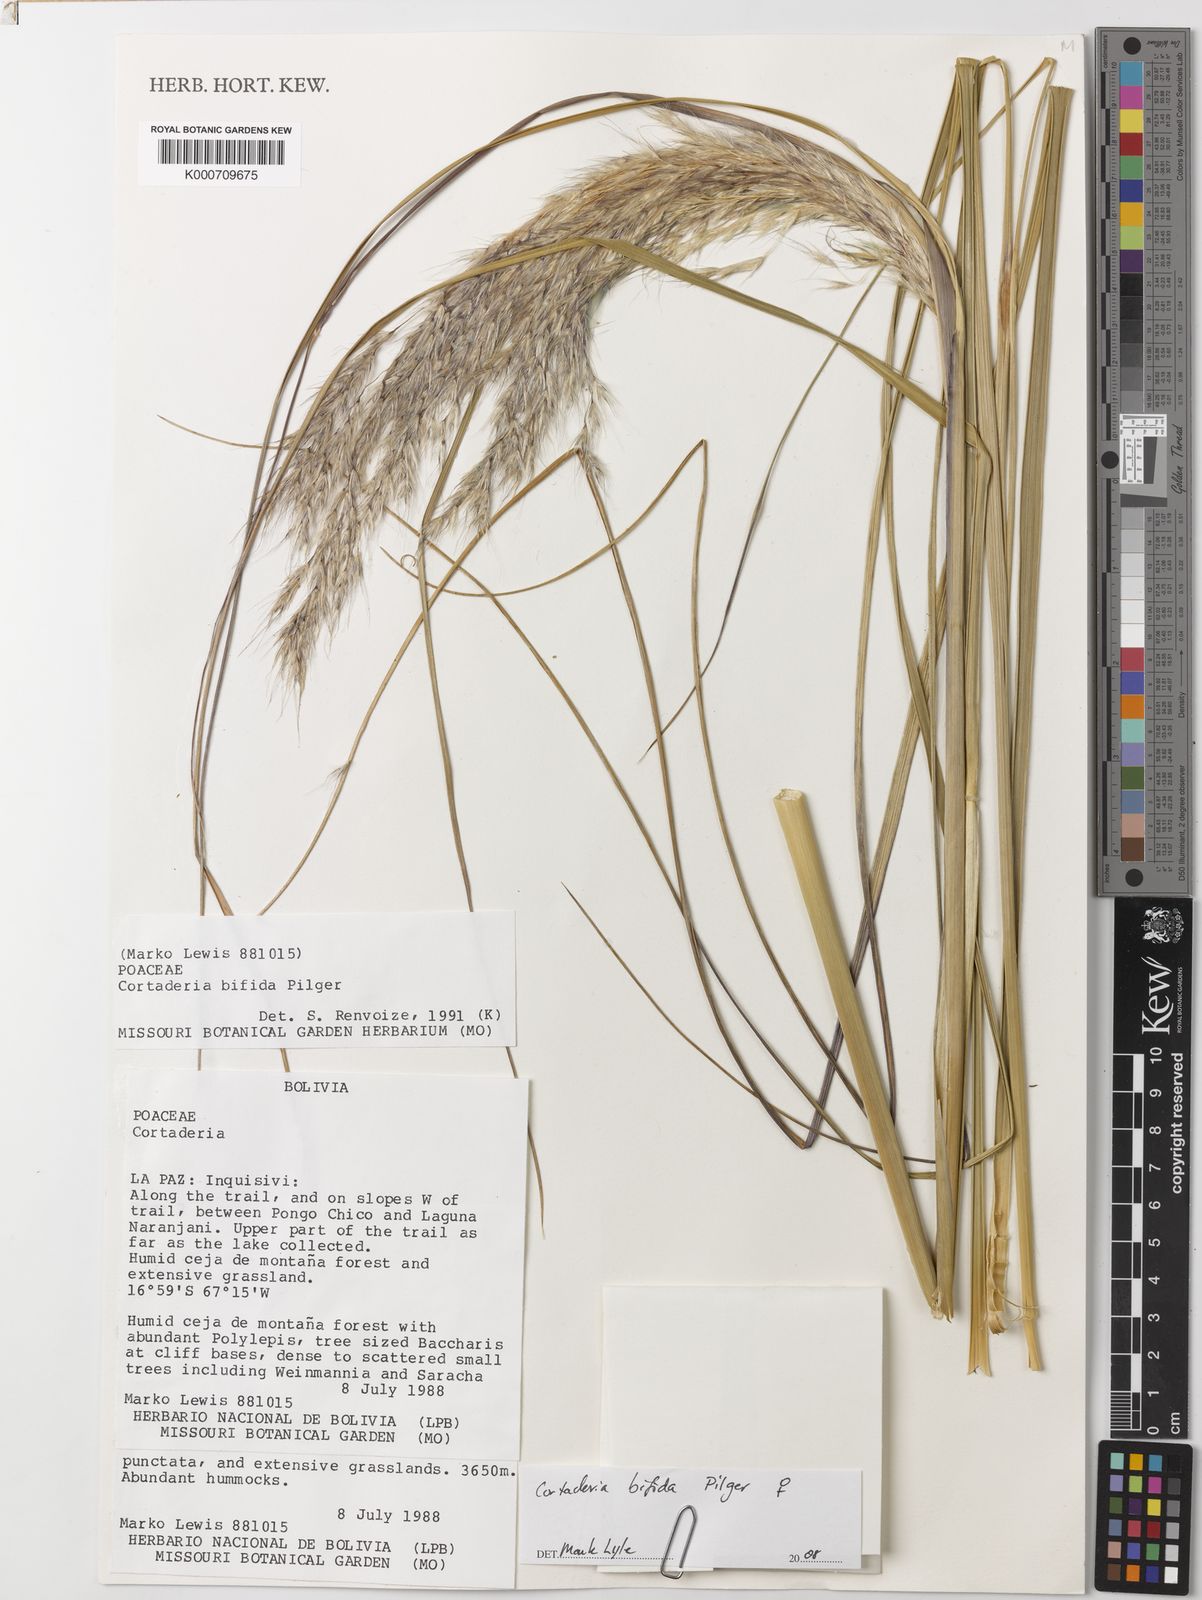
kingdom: Plantae
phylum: Tracheophyta
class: Liliopsida
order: Poales
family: Poaceae
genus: Cortaderia
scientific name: Cortaderia bifida
